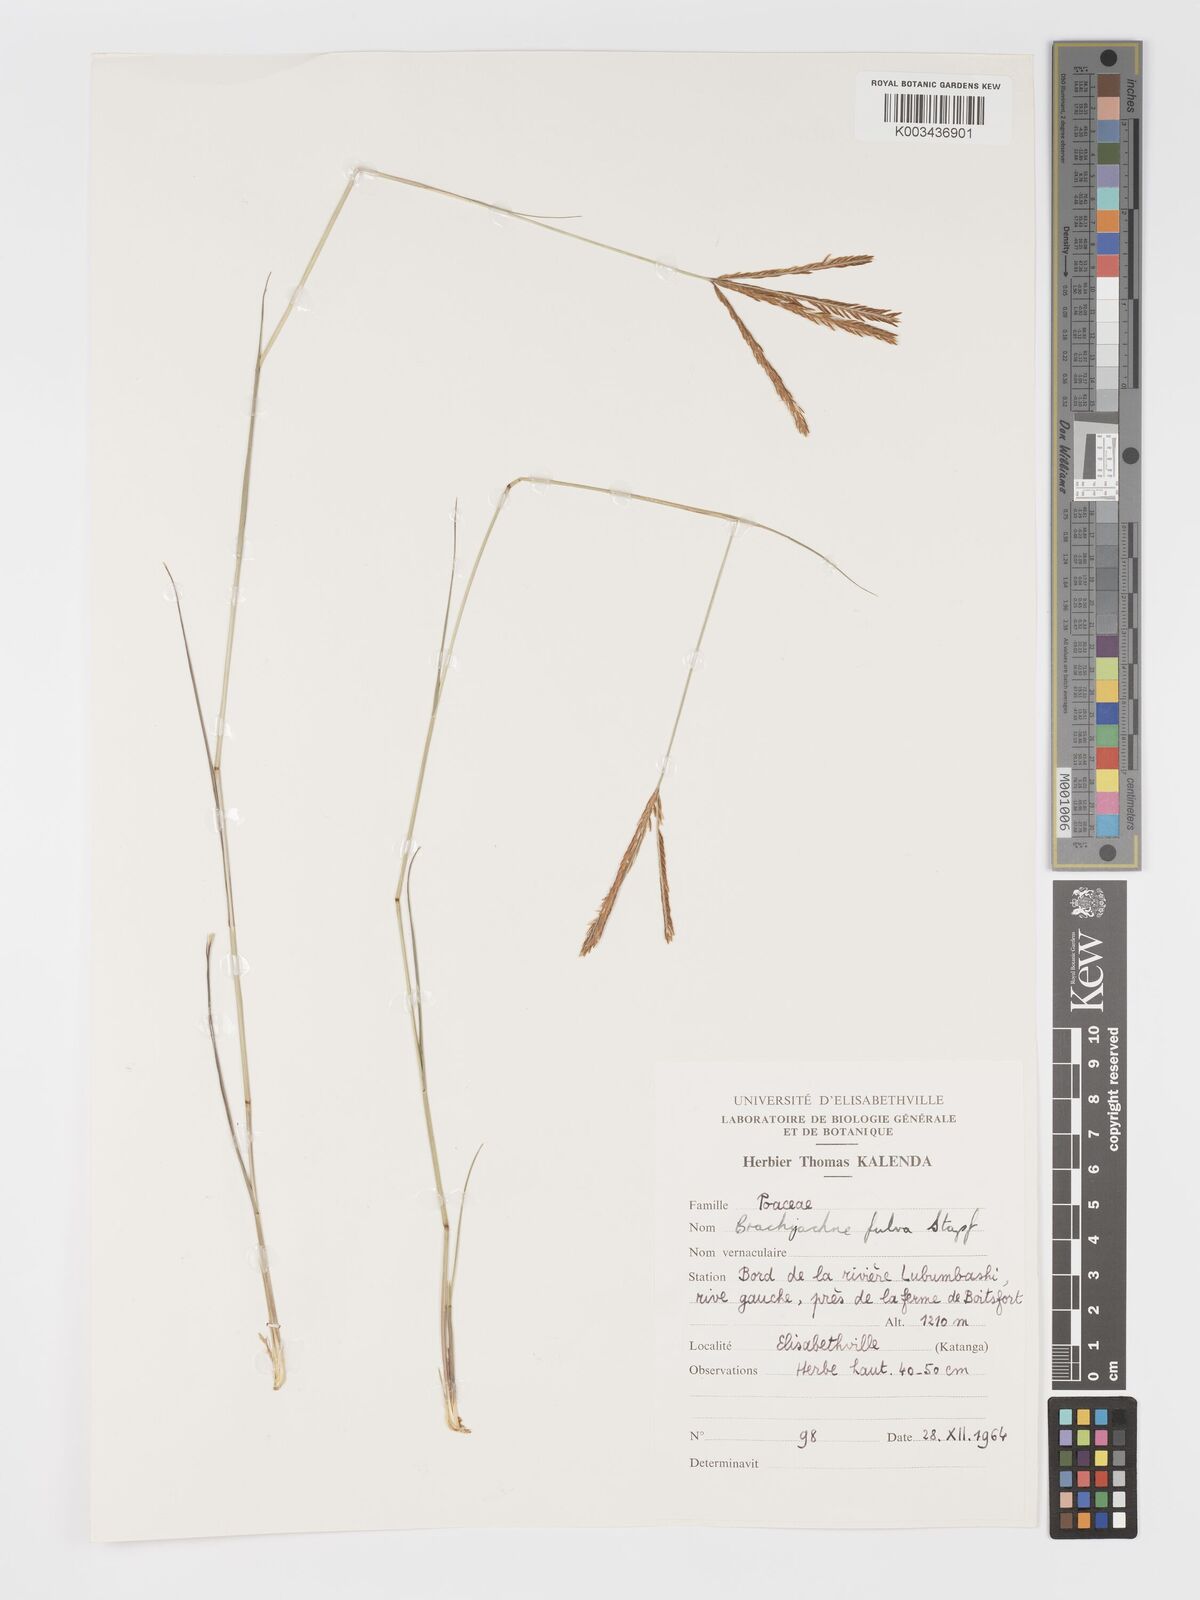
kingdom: Plantae
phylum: Tracheophyta
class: Liliopsida
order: Poales
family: Poaceae
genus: Micrachne
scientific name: Micrachne fulva
